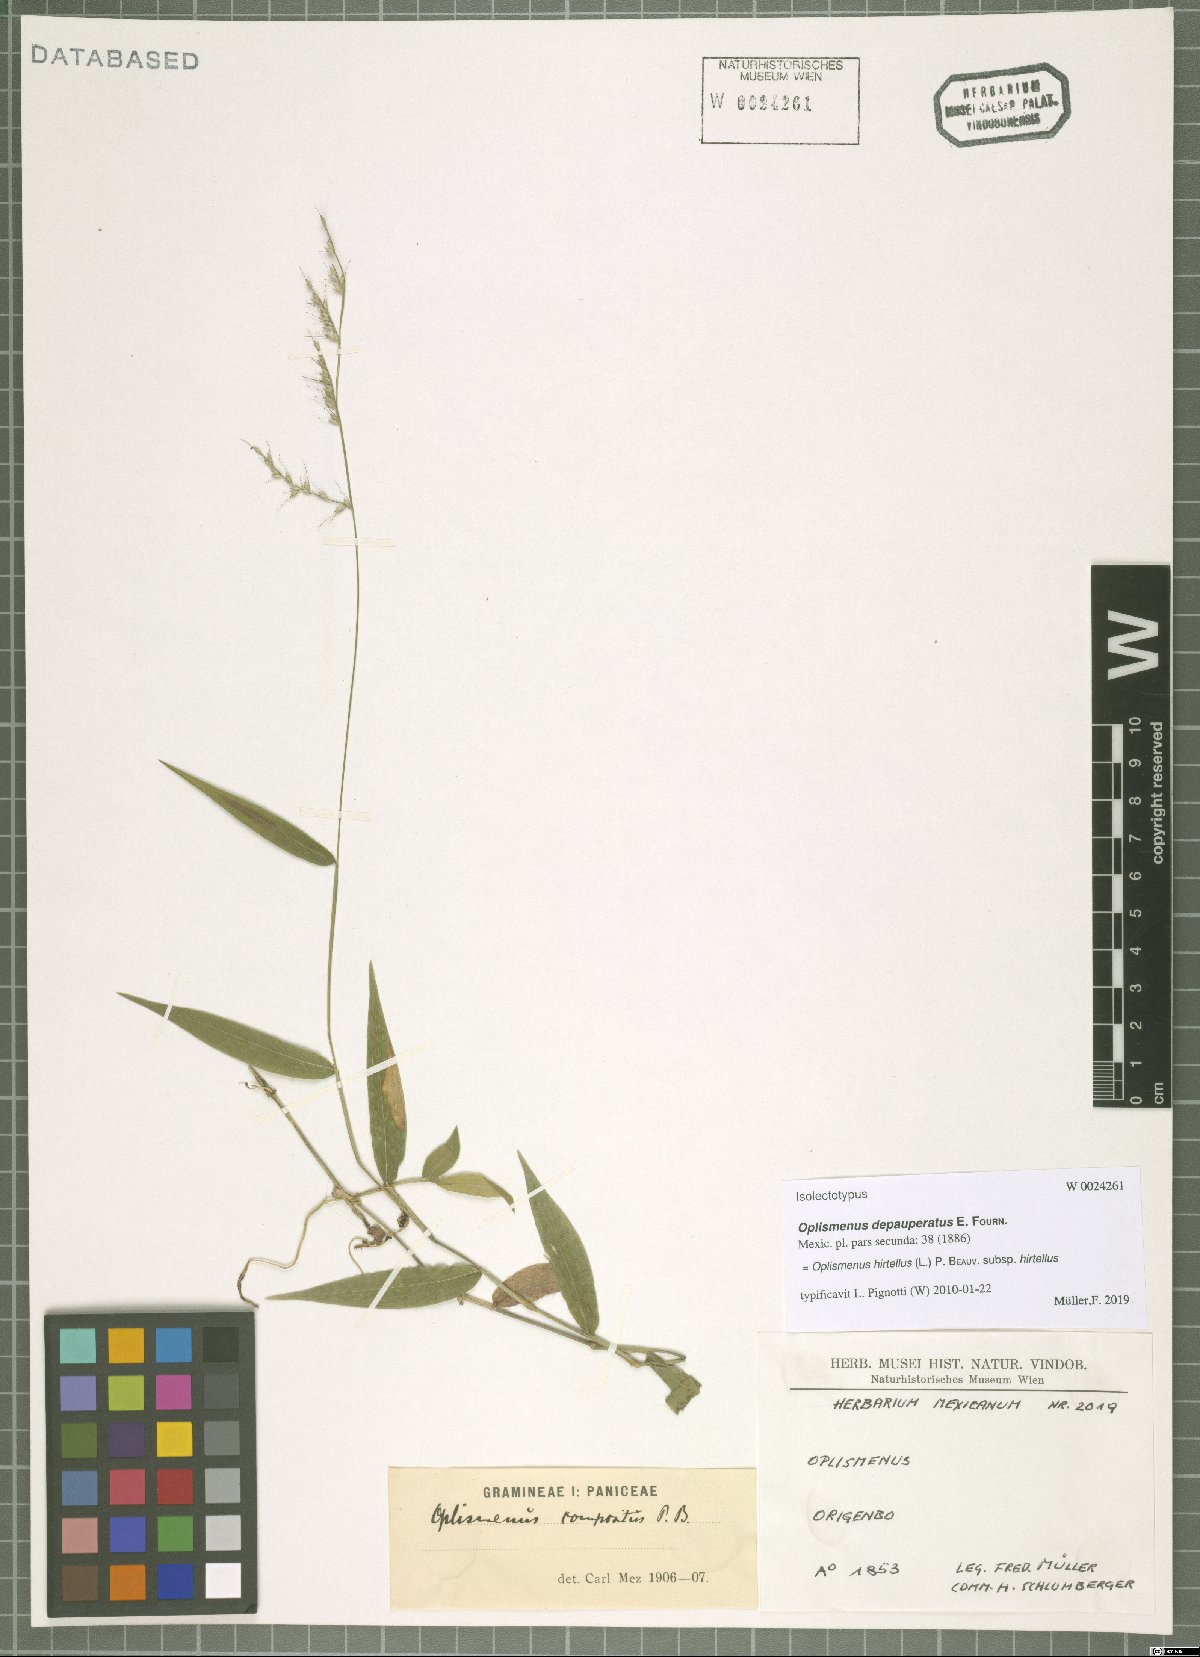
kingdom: Plantae
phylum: Tracheophyta
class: Liliopsida
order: Poales
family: Poaceae
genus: Oplismenus
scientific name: Oplismenus hirtellus
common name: Basketgrass
